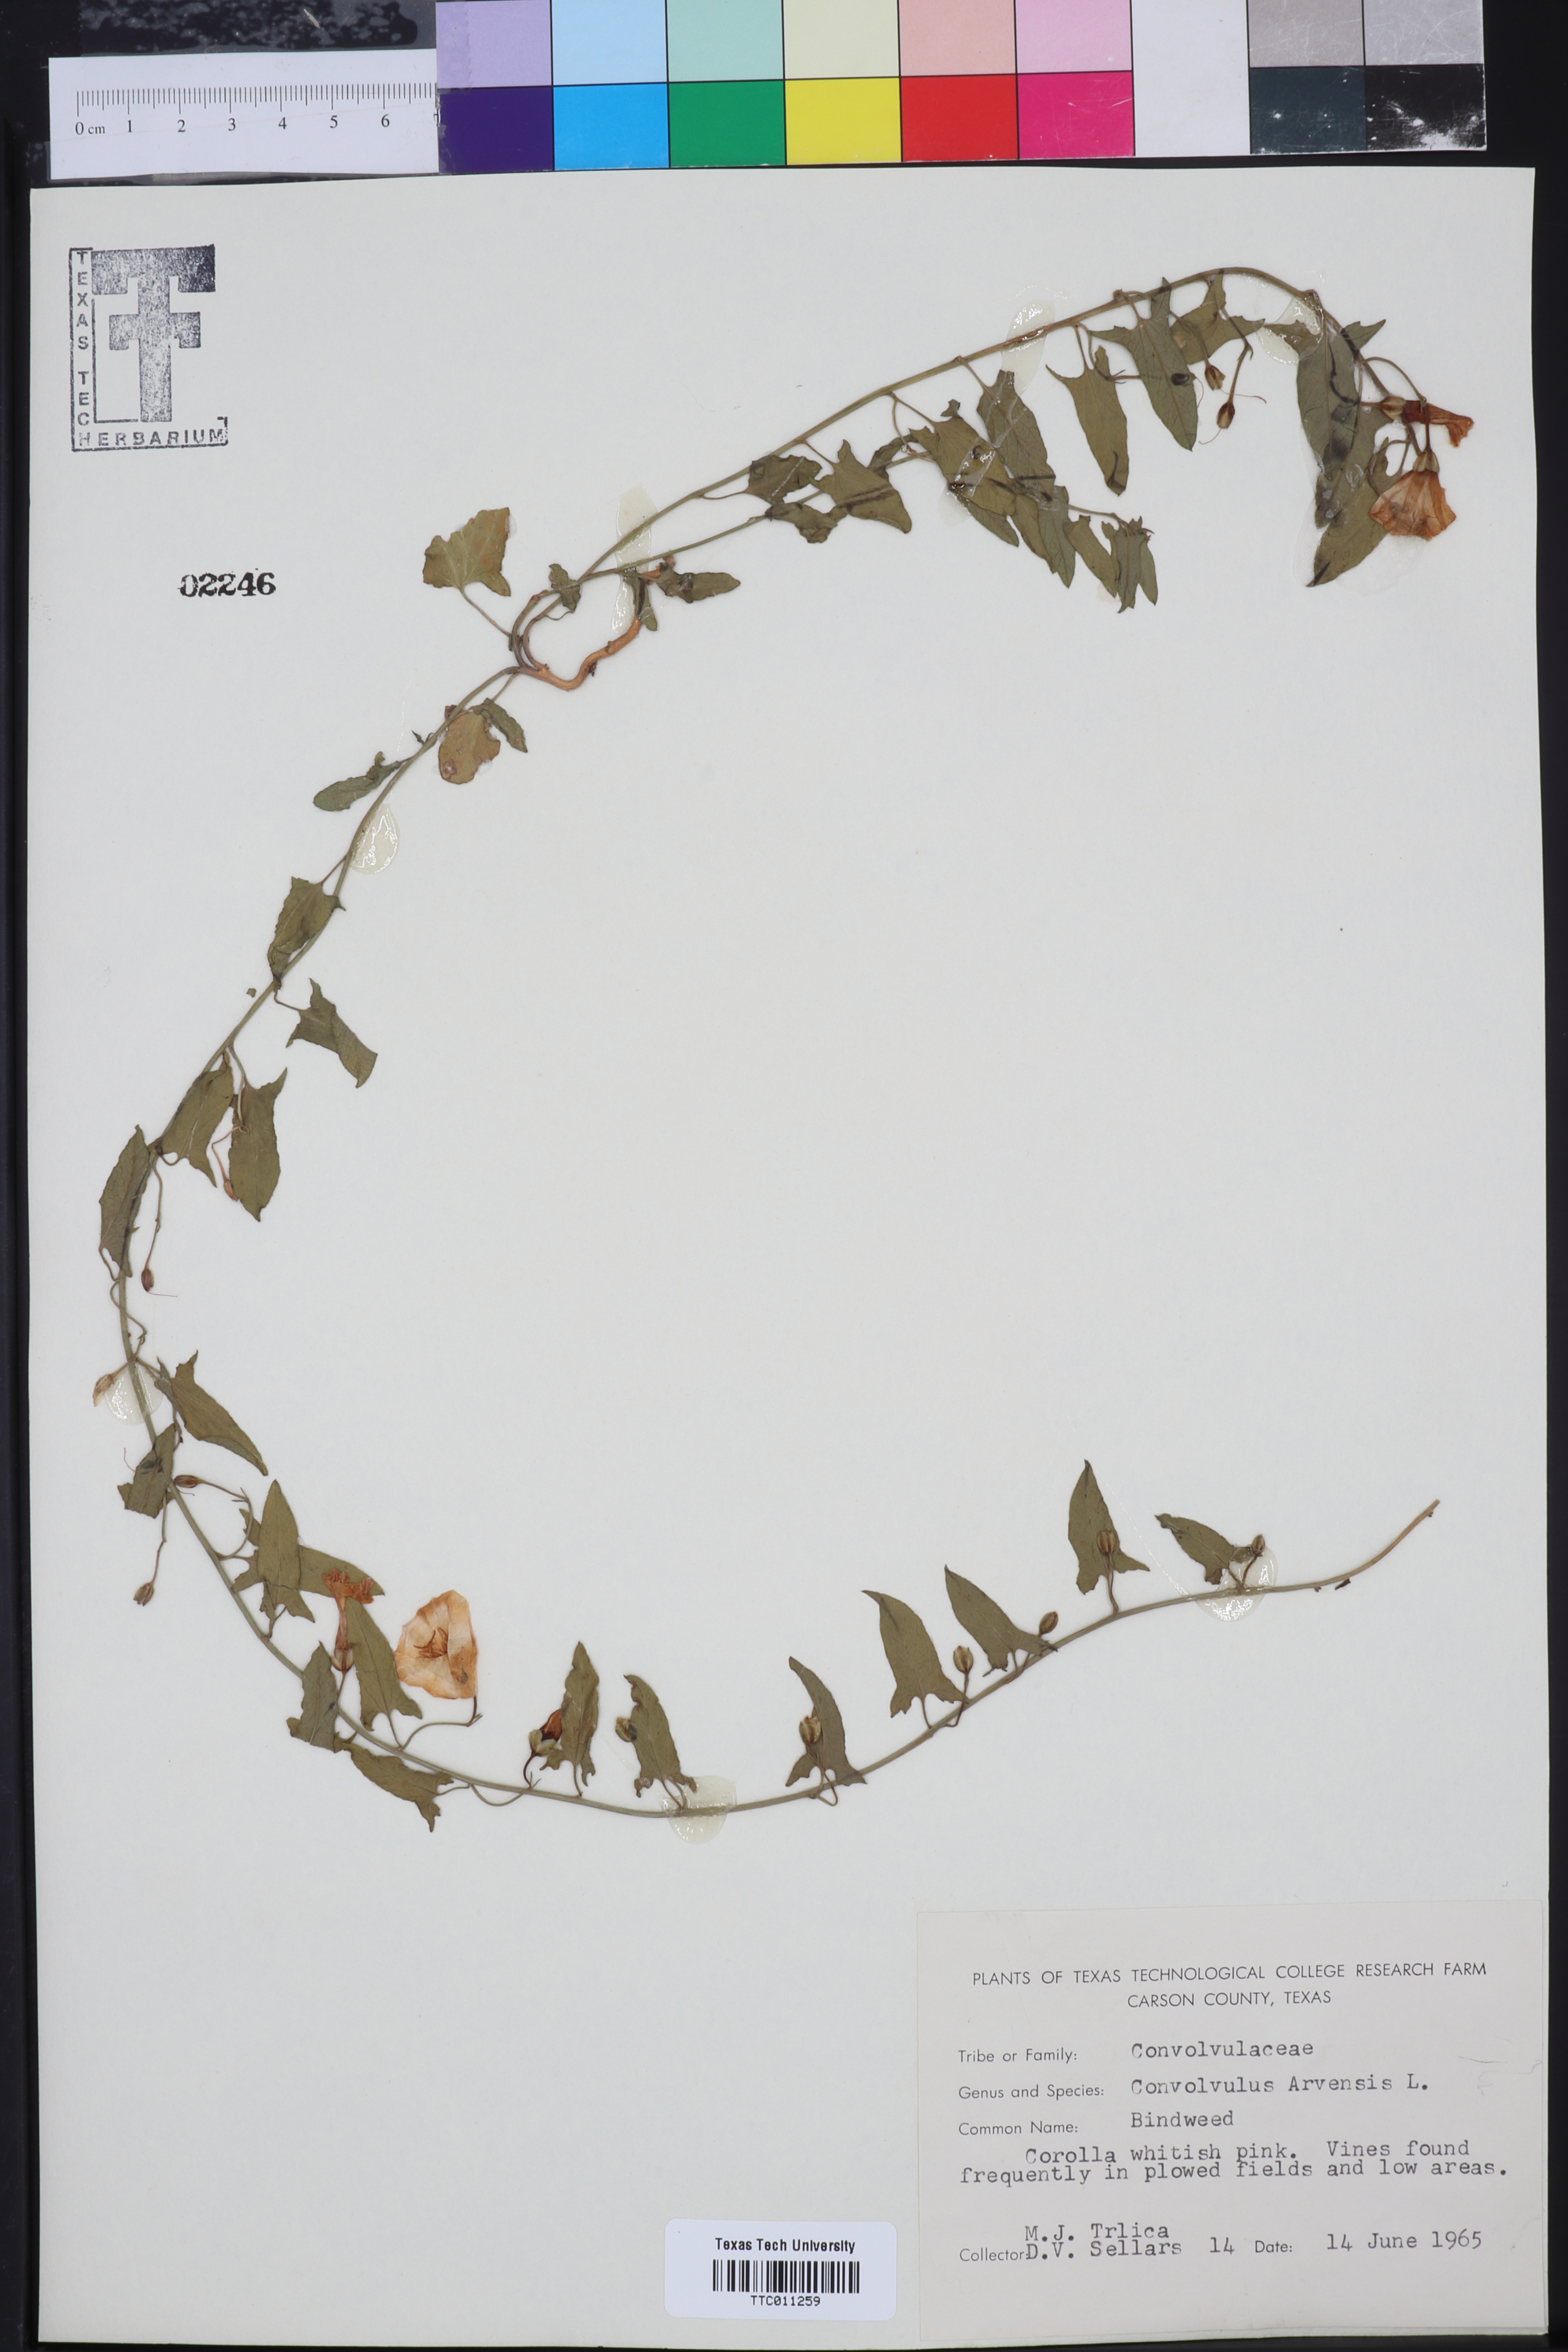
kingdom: Plantae
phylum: Tracheophyta
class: Magnoliopsida
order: Solanales
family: Convolvulaceae
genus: Convolvulus
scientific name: Convolvulus arvensis
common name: Field bindweed
